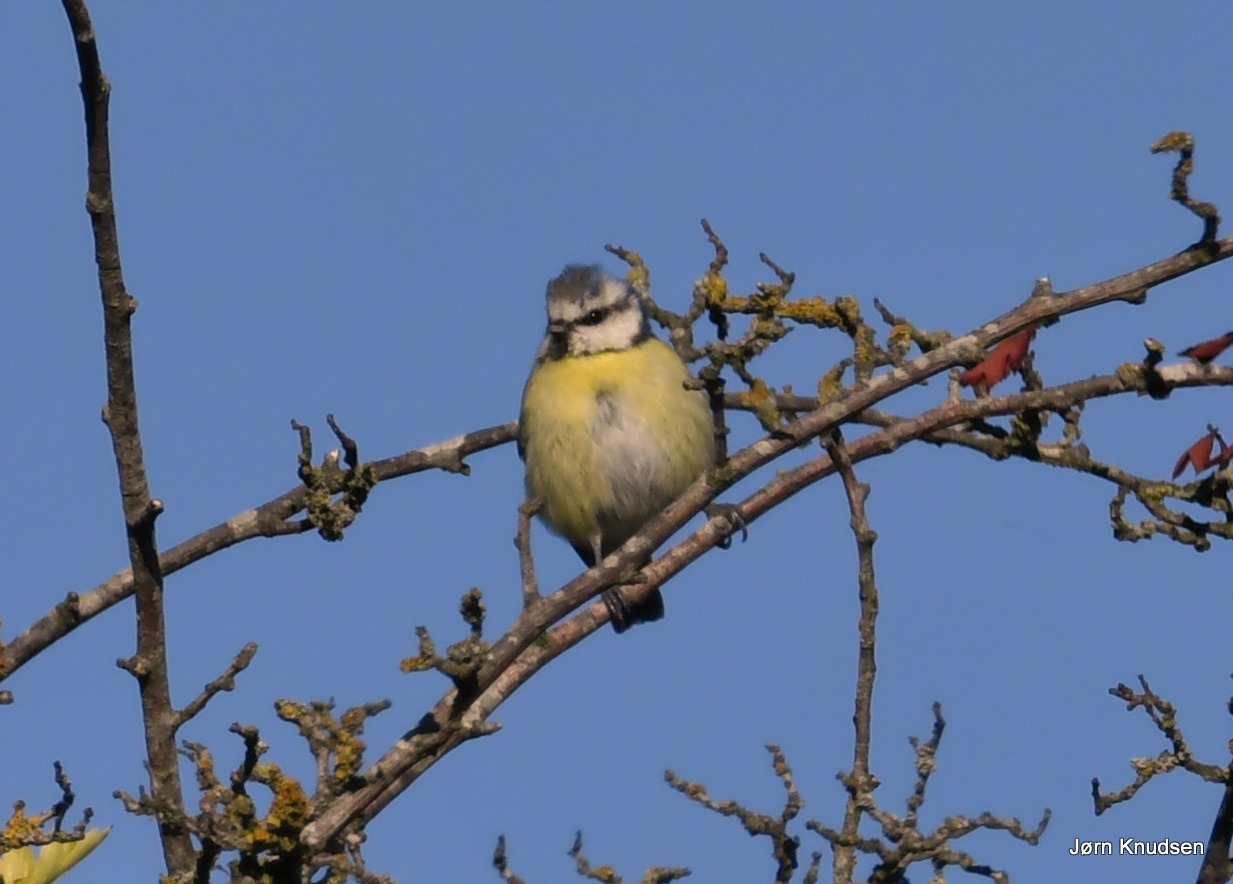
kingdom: Animalia
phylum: Chordata
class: Aves
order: Passeriformes
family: Paridae
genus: Cyanistes
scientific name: Cyanistes caeruleus
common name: Blåmejse
